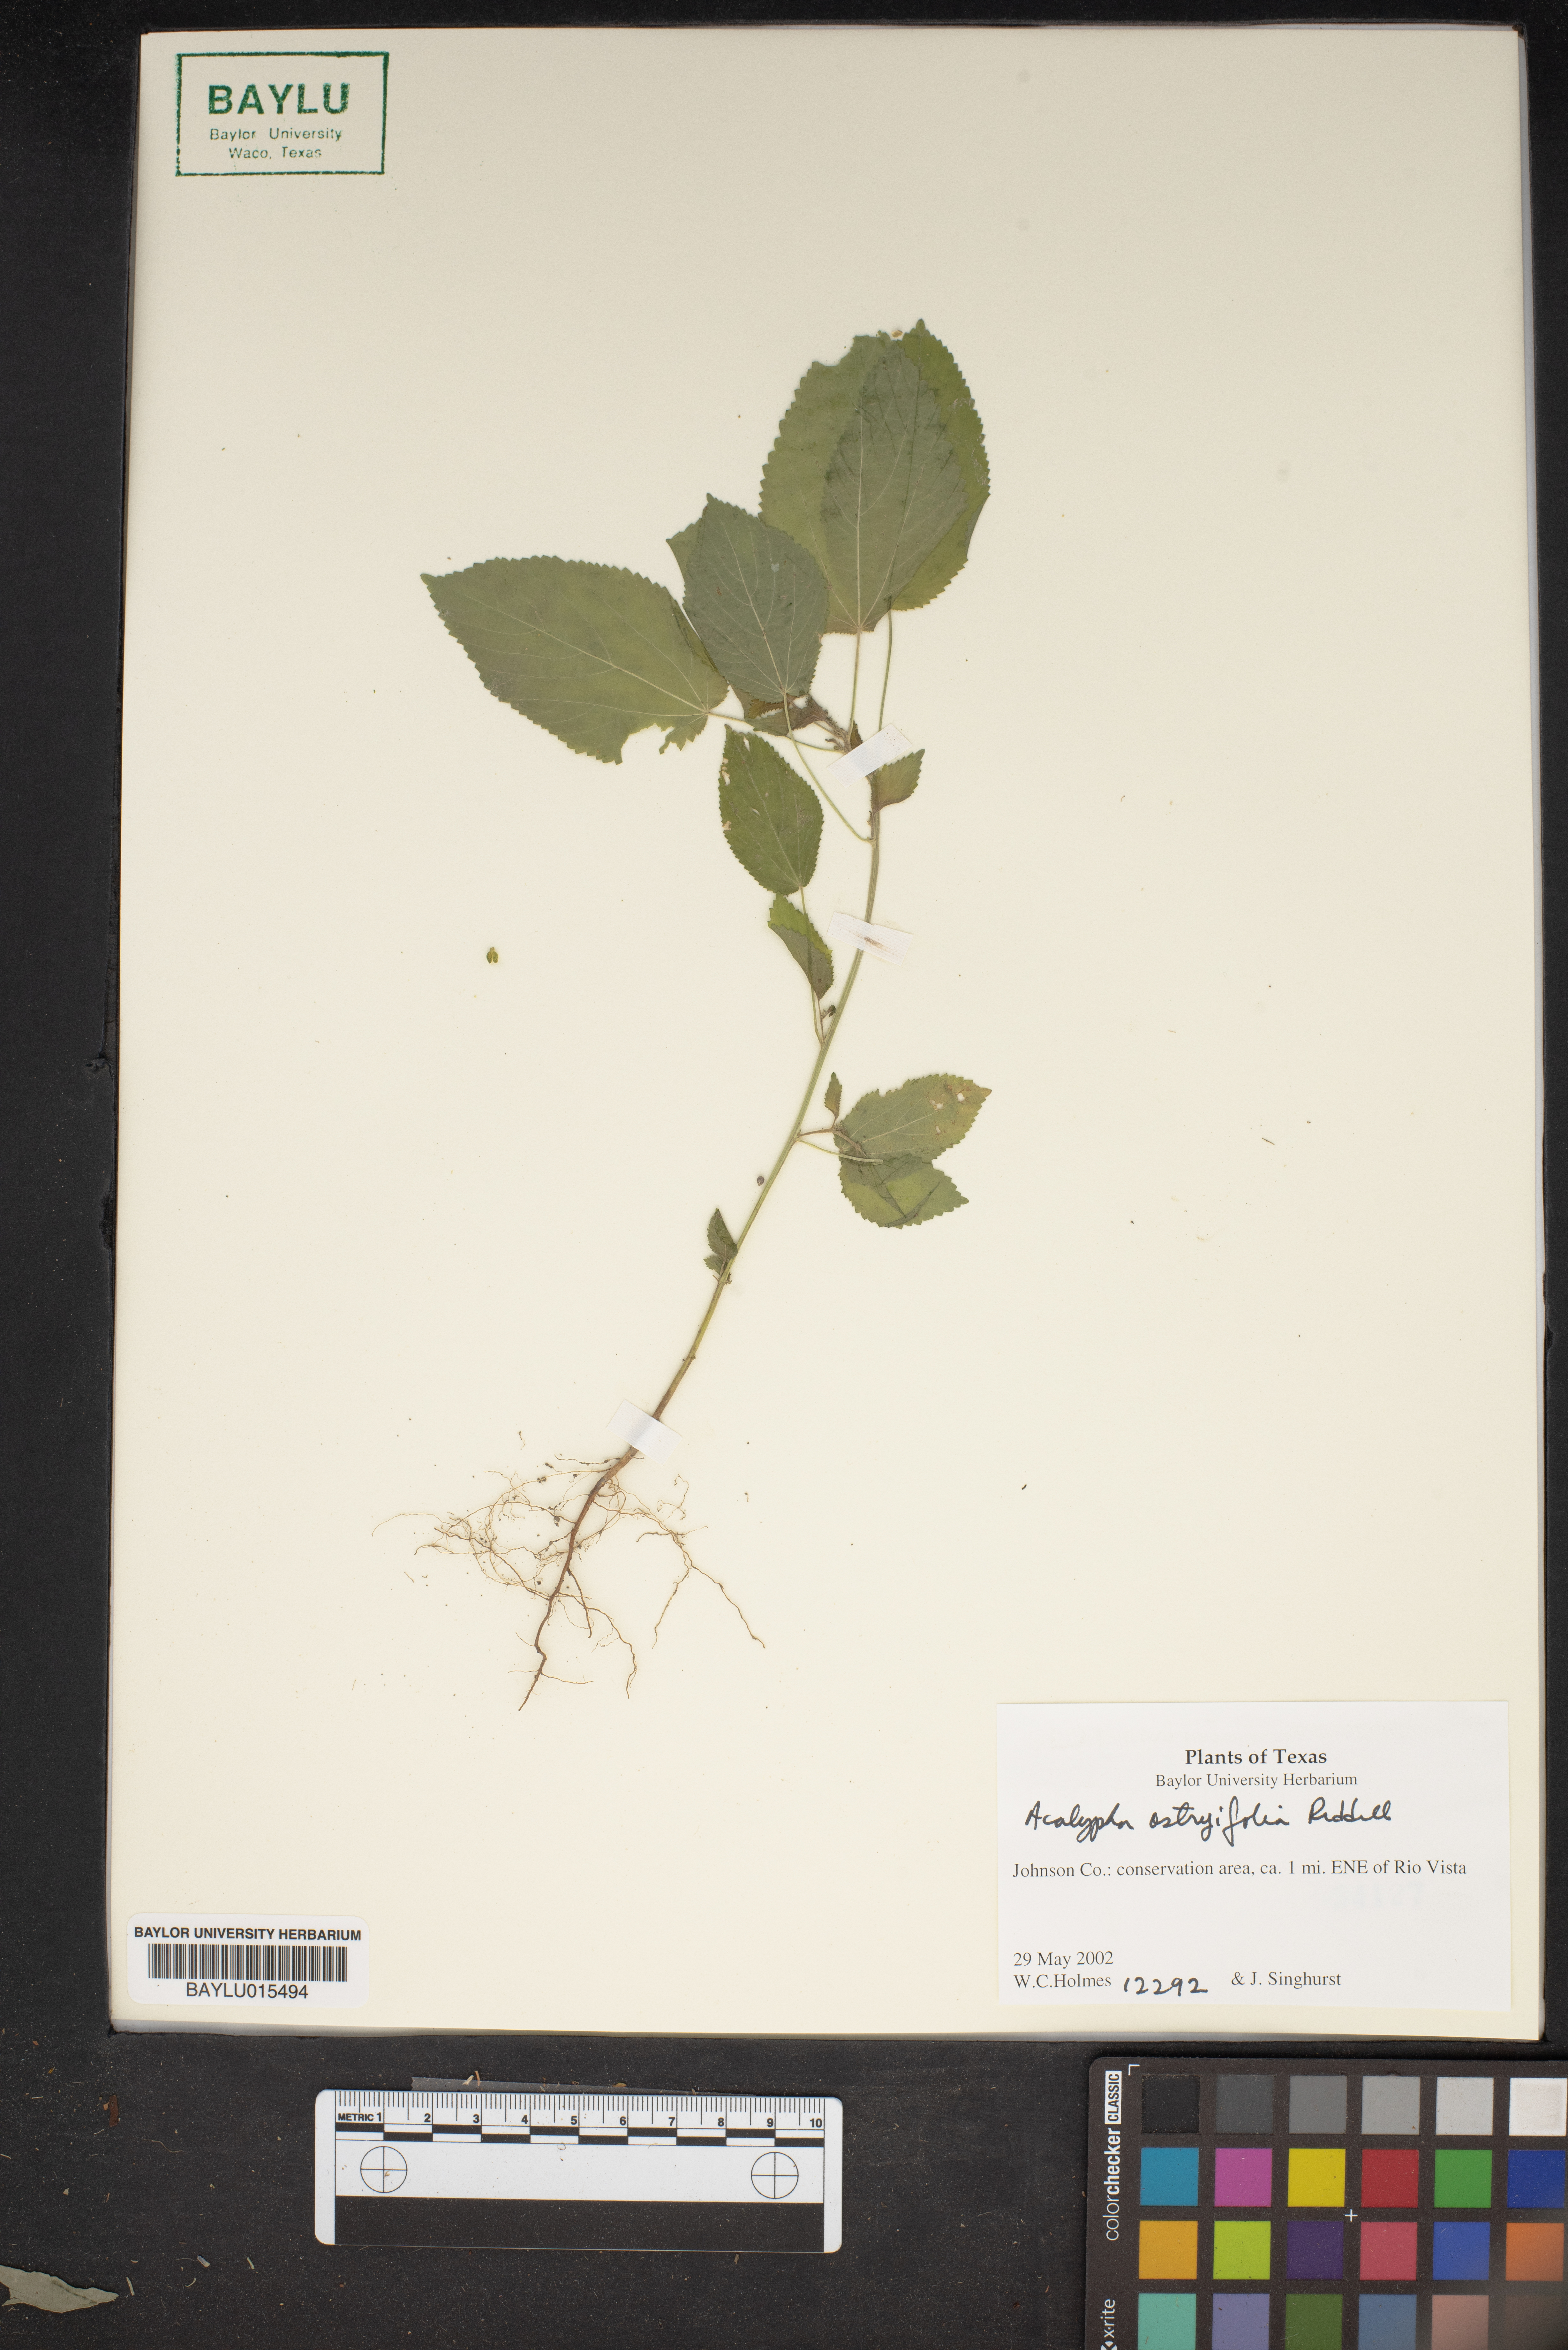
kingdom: Plantae
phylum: Tracheophyta
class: Magnoliopsida
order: Malpighiales
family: Euphorbiaceae
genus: Acalypha
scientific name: Acalypha persimilis
